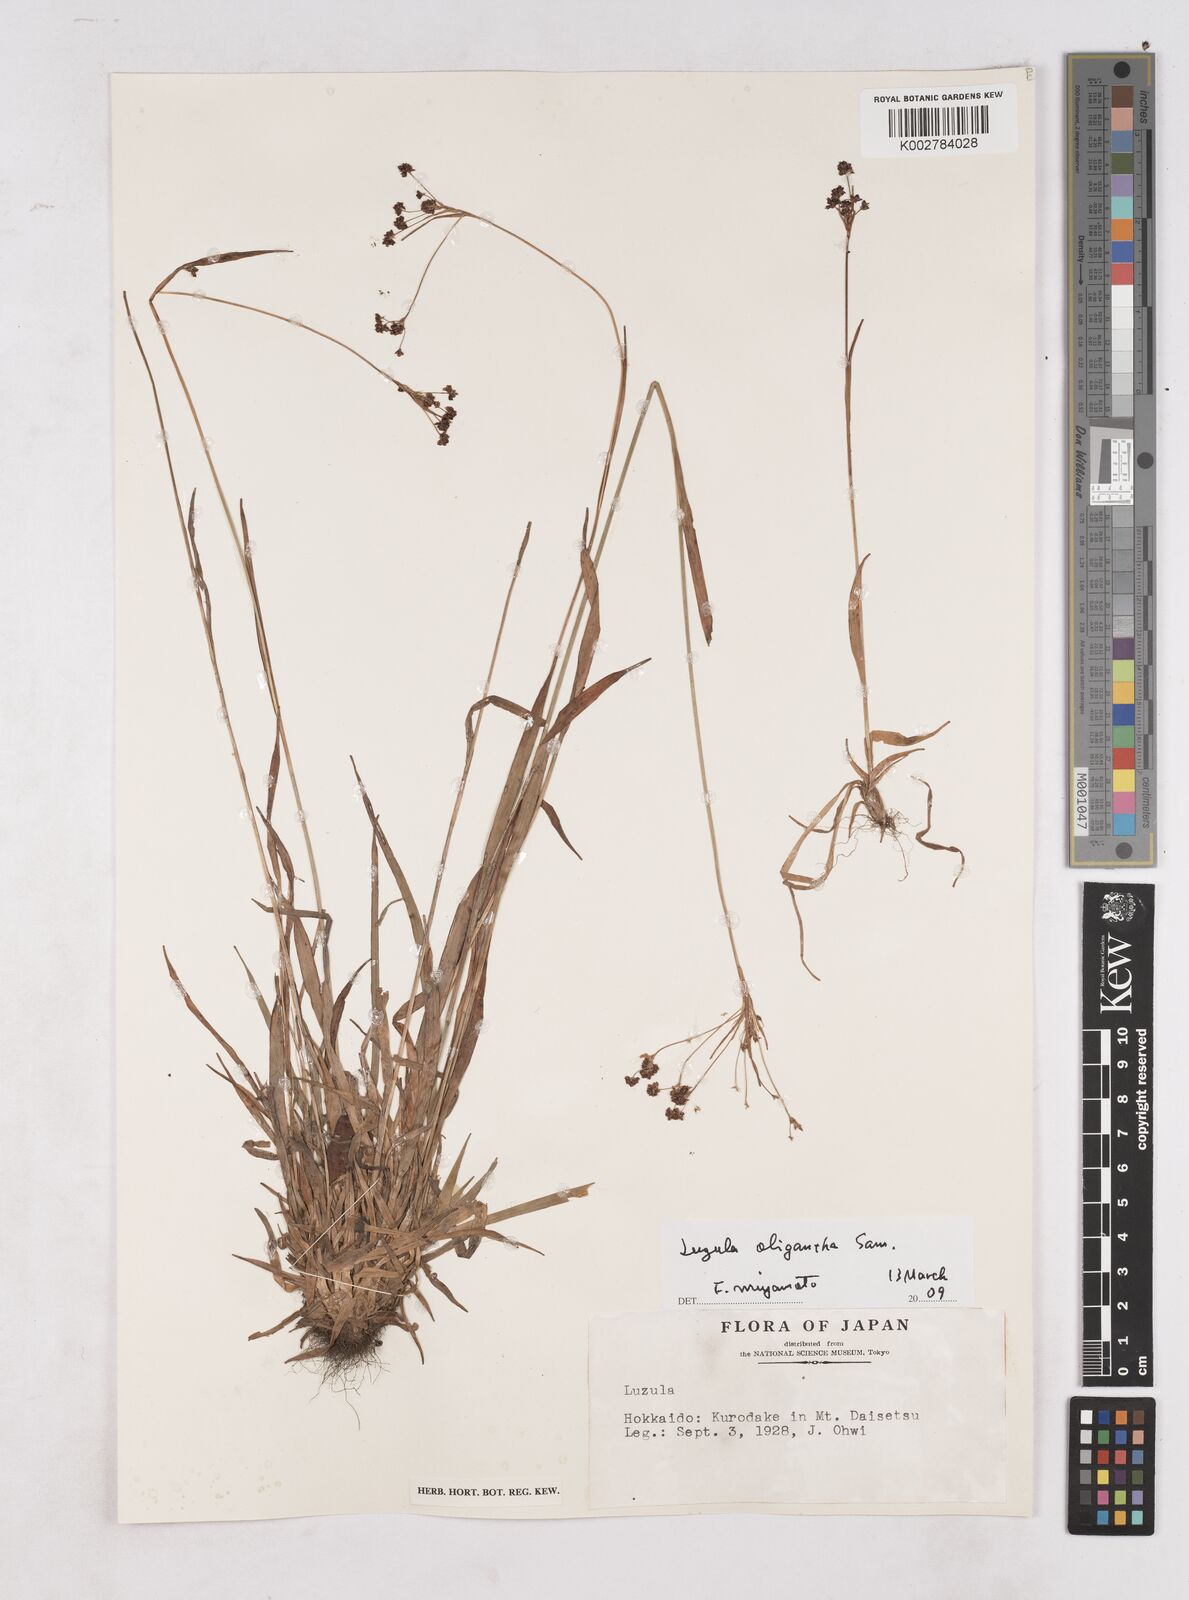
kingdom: Plantae
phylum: Tracheophyta
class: Liliopsida
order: Poales
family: Juncaceae
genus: Luzula
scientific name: Luzula oligantha
